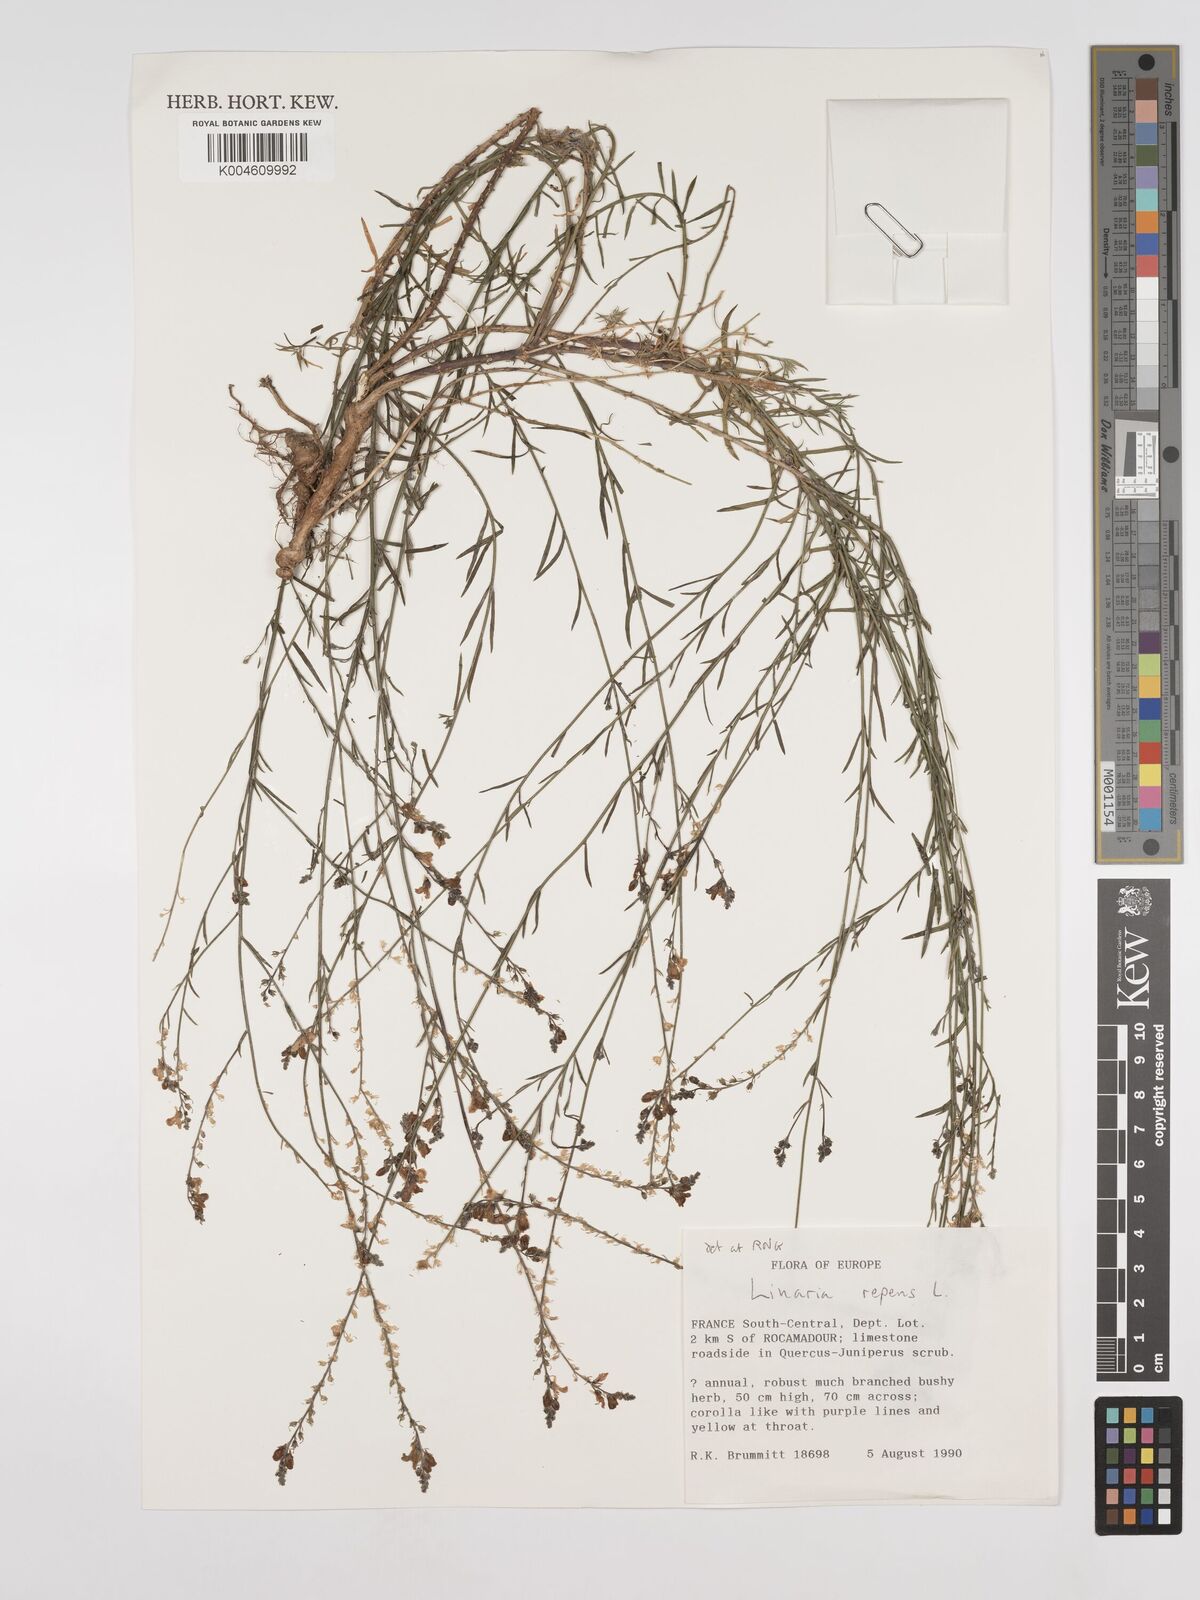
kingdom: Plantae
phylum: Tracheophyta
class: Magnoliopsida
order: Lamiales
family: Plantaginaceae
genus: Linaria
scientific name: Linaria repens
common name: Pale toadflax
